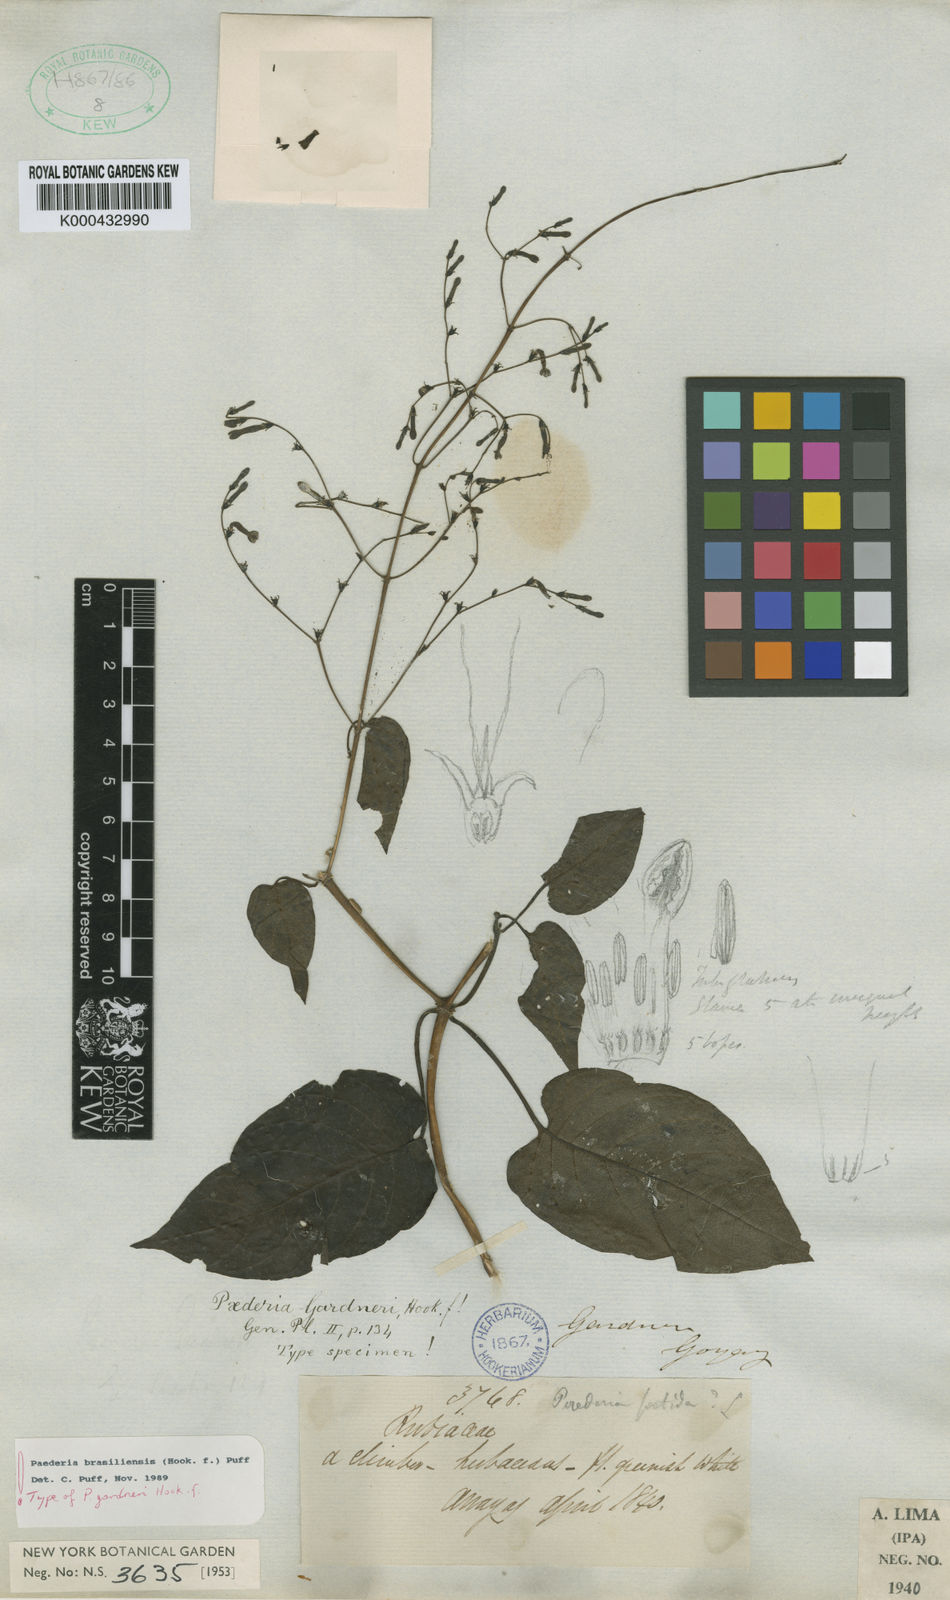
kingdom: Plantae
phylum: Tracheophyta
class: Magnoliopsida
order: Gentianales
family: Rubiaceae
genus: Paederia
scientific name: Paederia brasiliensis
